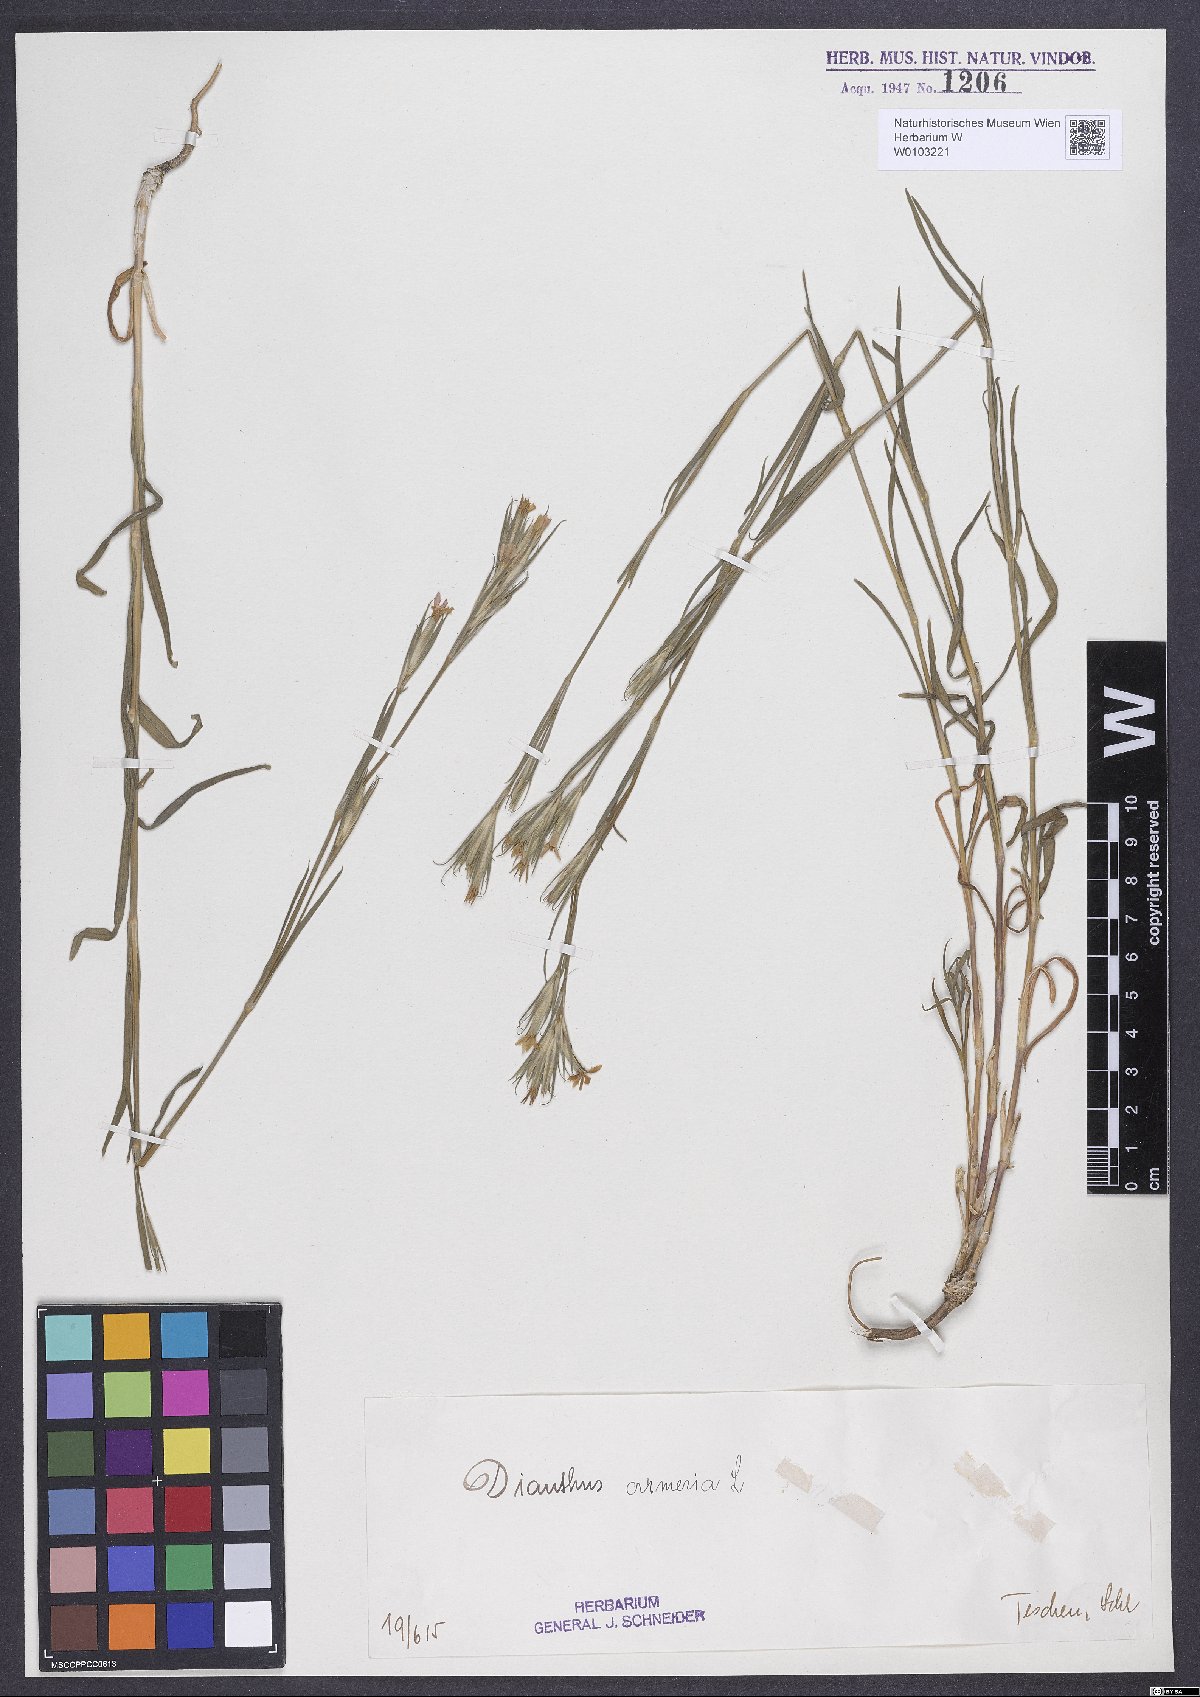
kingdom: Plantae
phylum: Tracheophyta
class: Magnoliopsida
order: Caryophyllales
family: Caryophyllaceae
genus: Dianthus
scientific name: Dianthus armeria
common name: Deptford pink
